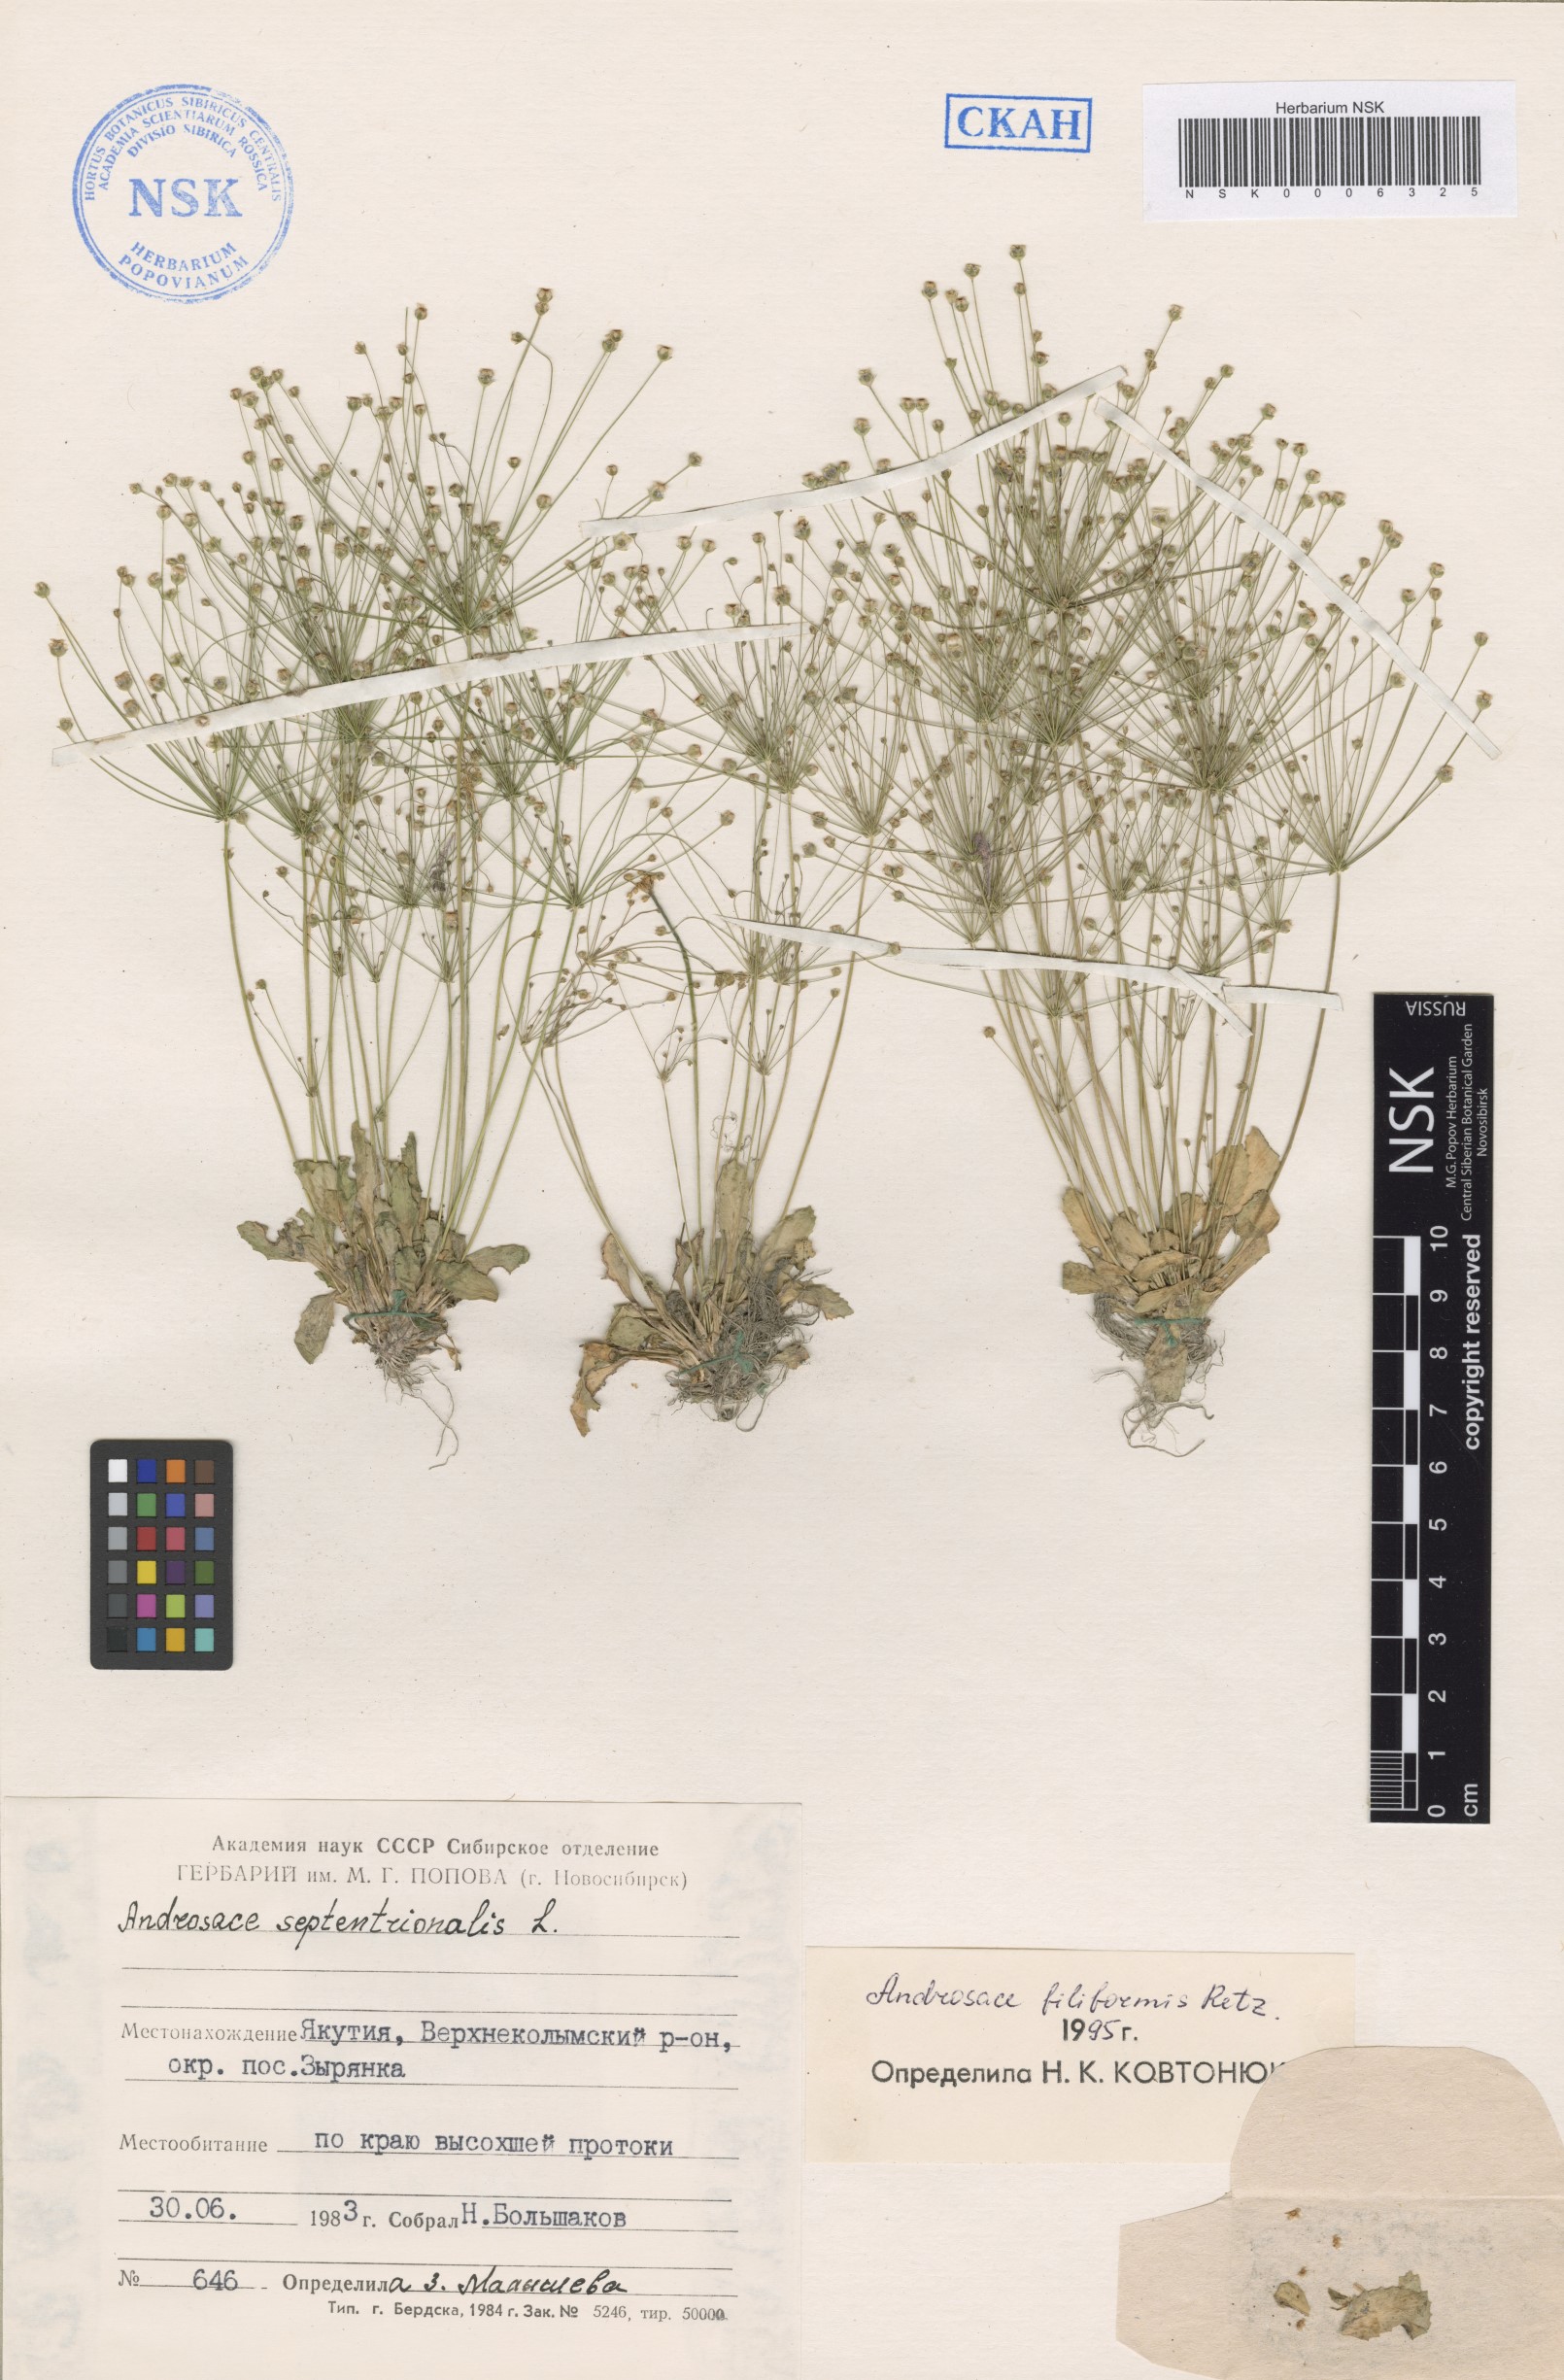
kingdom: Plantae
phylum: Tracheophyta
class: Magnoliopsida
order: Ericales
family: Primulaceae
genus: Androsace
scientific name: Androsace filiformis
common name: Filiform rock jasmine
